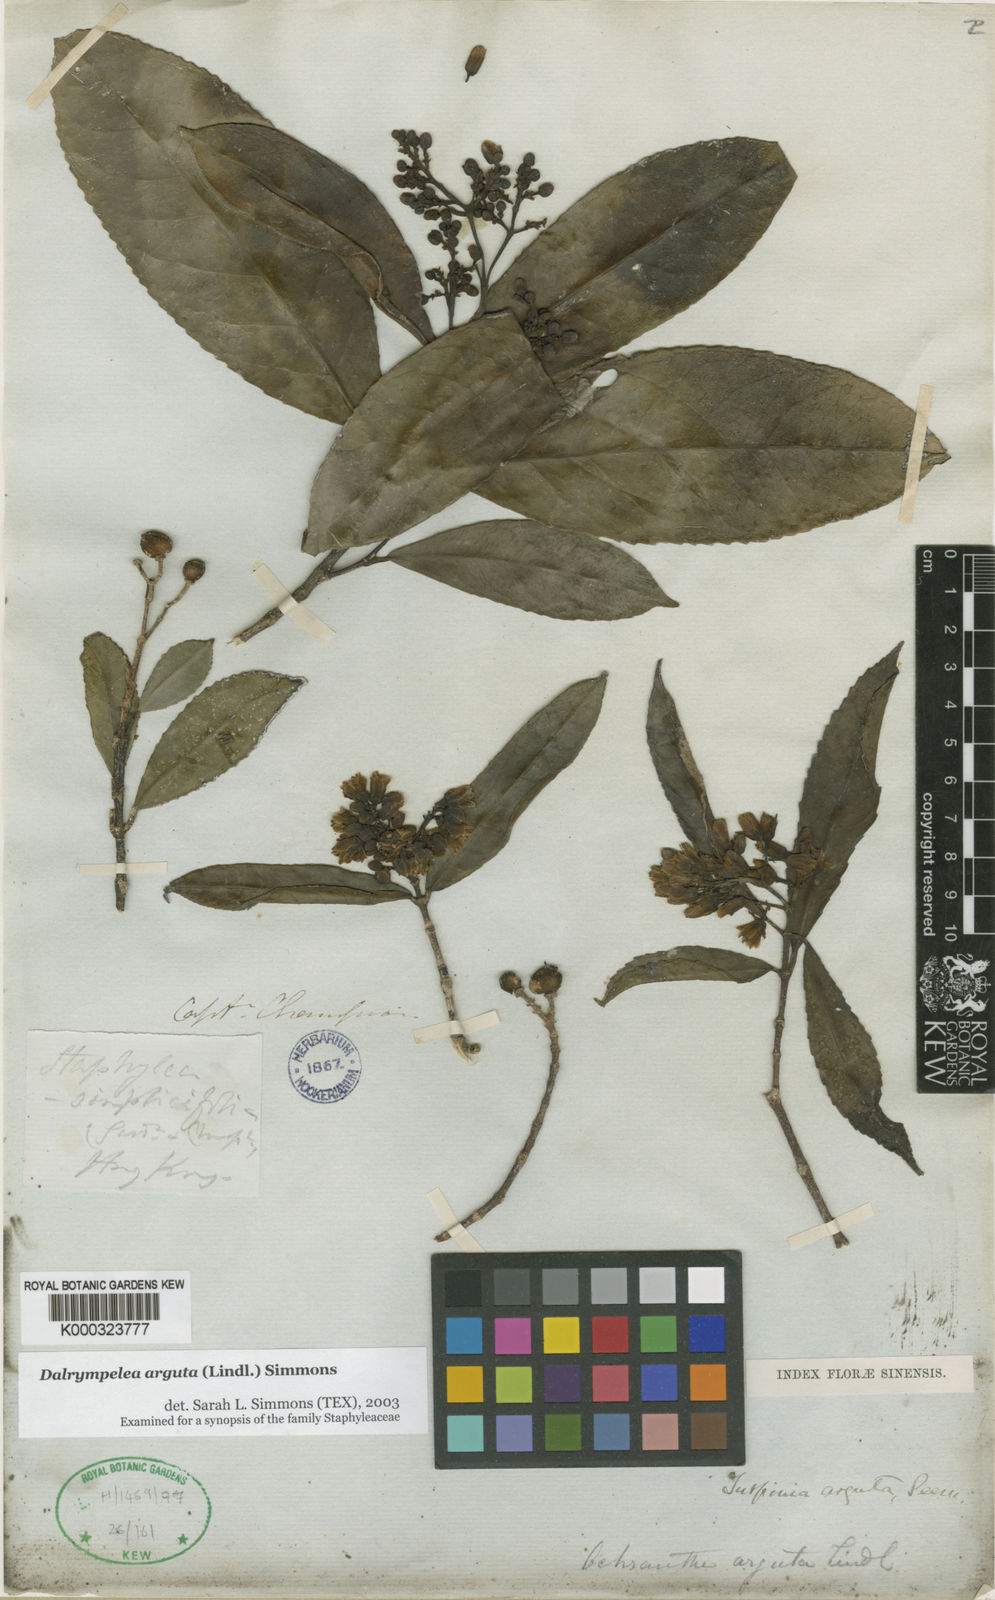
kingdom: Plantae
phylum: Tracheophyta
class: Magnoliopsida
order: Crossosomatales
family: Staphyleaceae
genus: Turpinia
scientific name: Turpinia arguta
